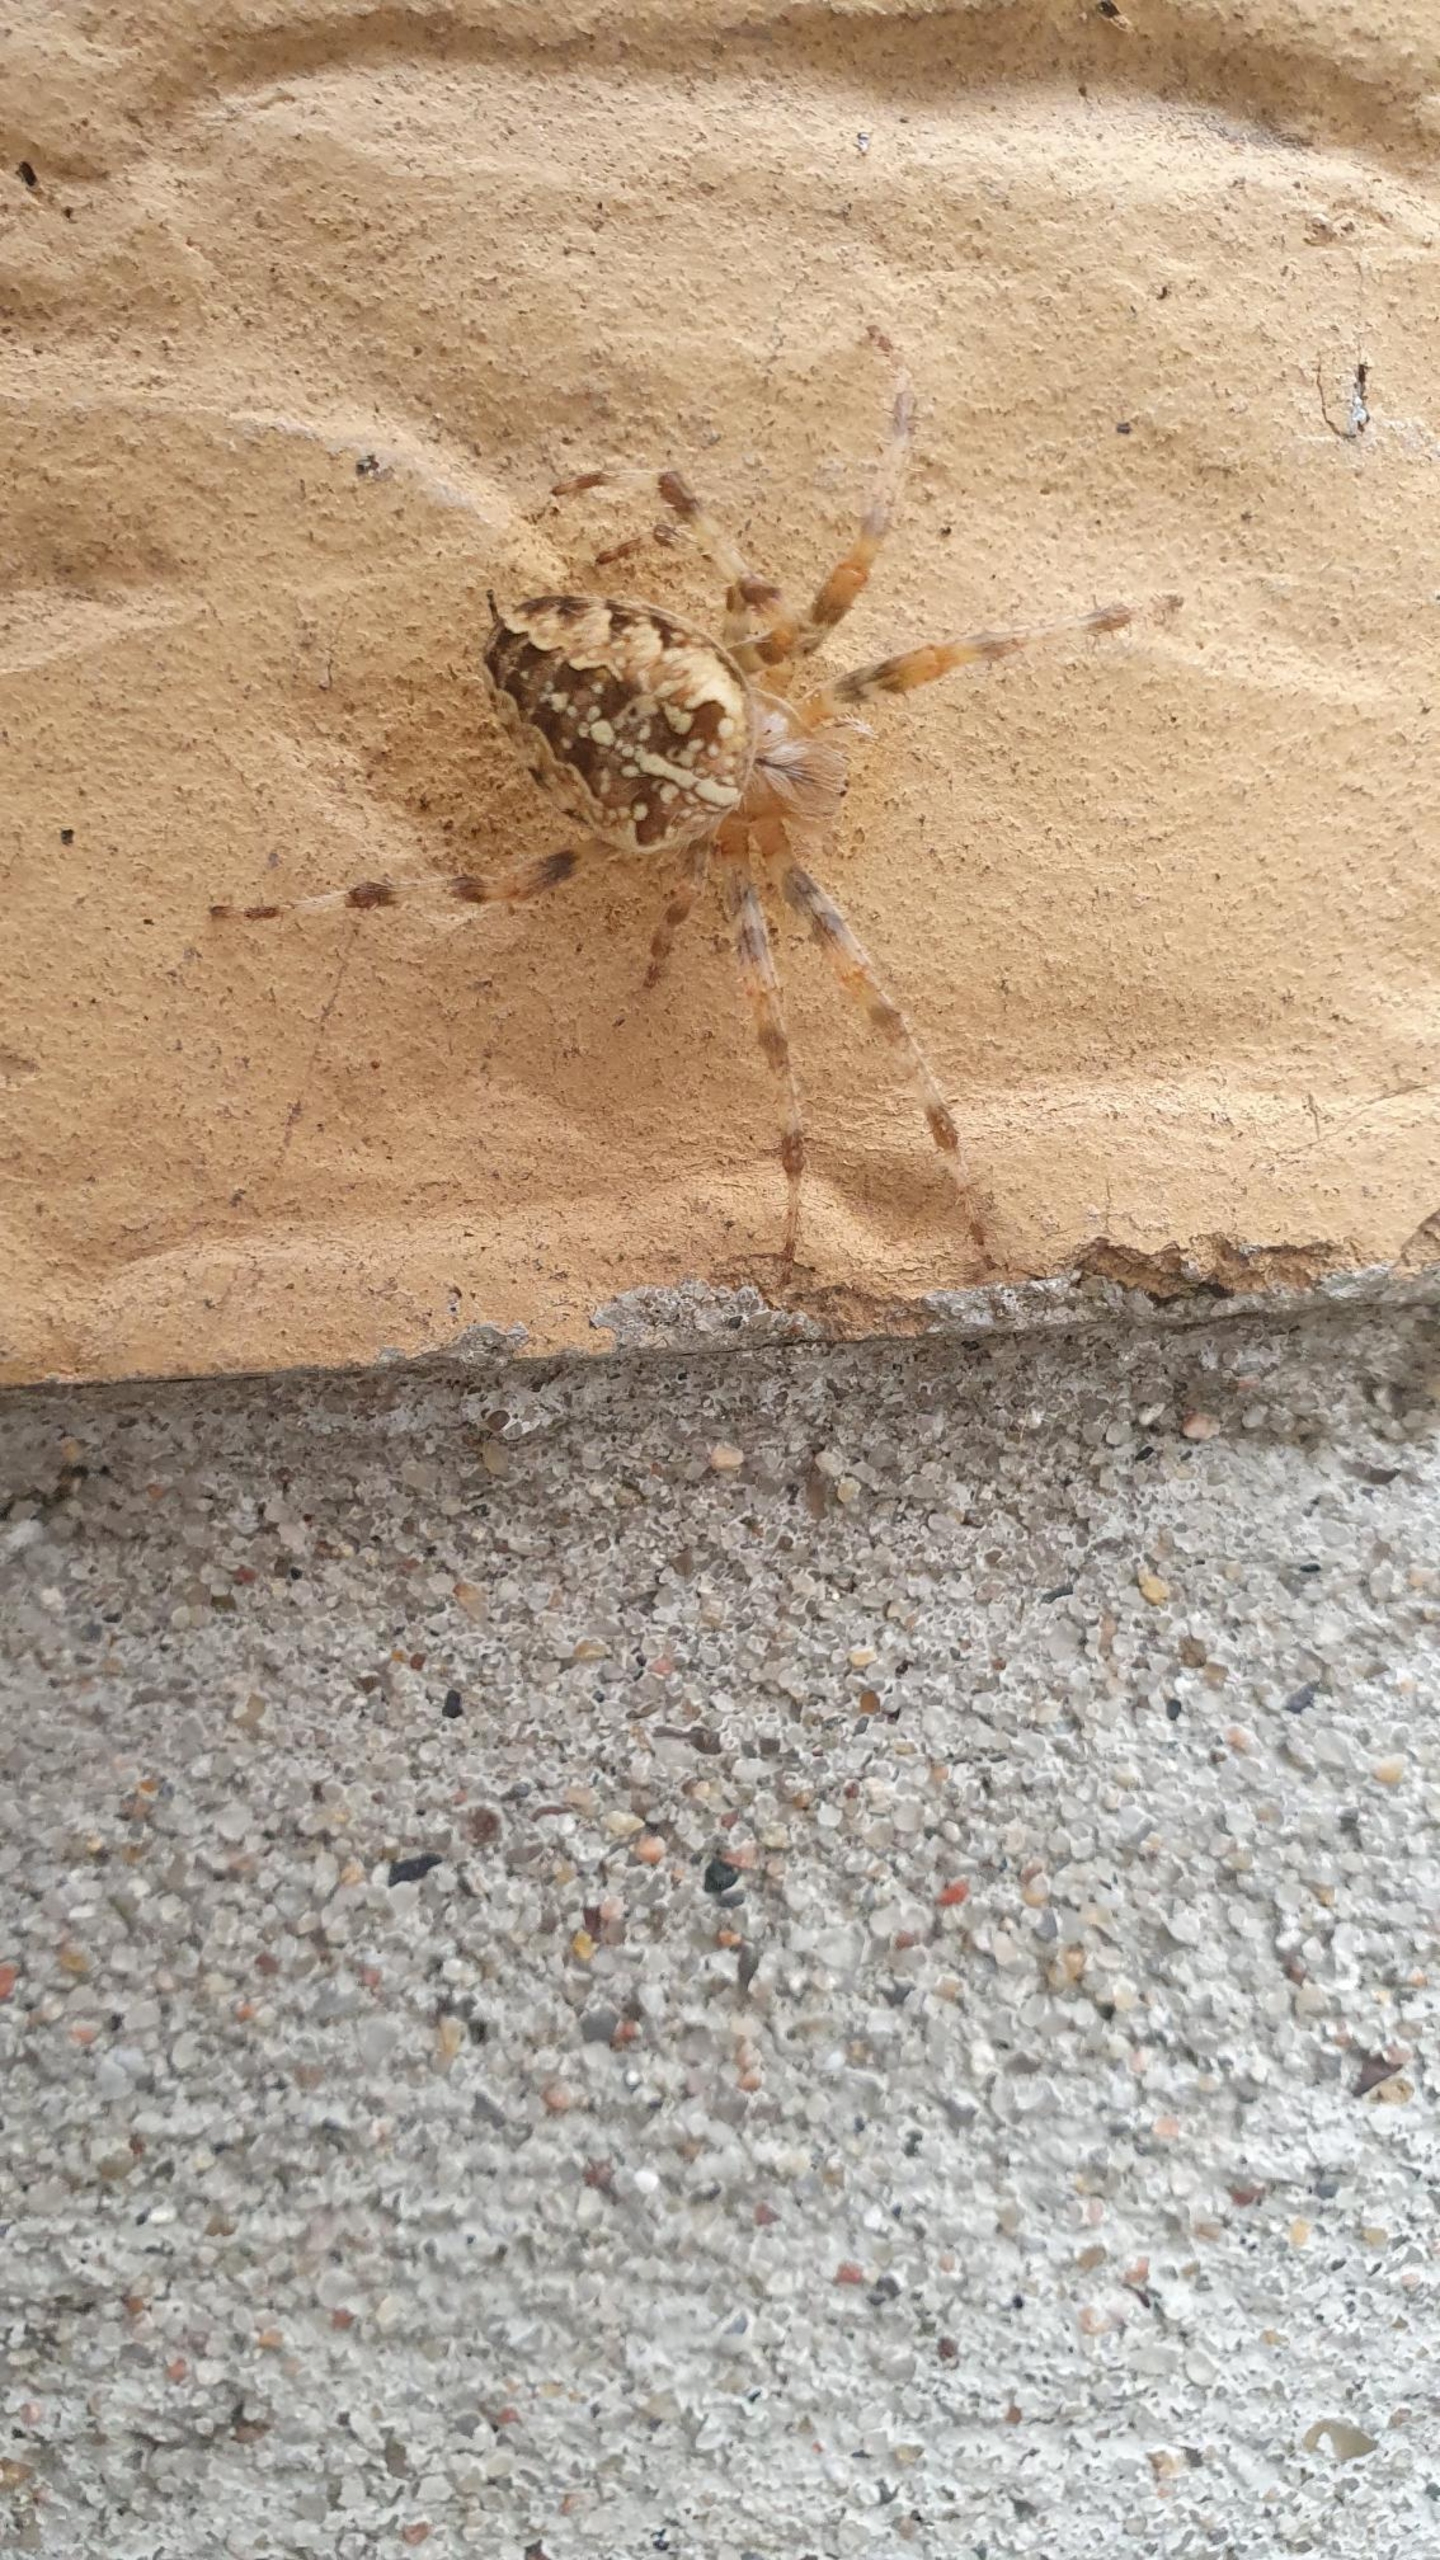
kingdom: Animalia
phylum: Arthropoda
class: Arachnida
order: Araneae
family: Araneidae
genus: Araneus
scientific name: Araneus diadematus
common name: Korsedderkop
